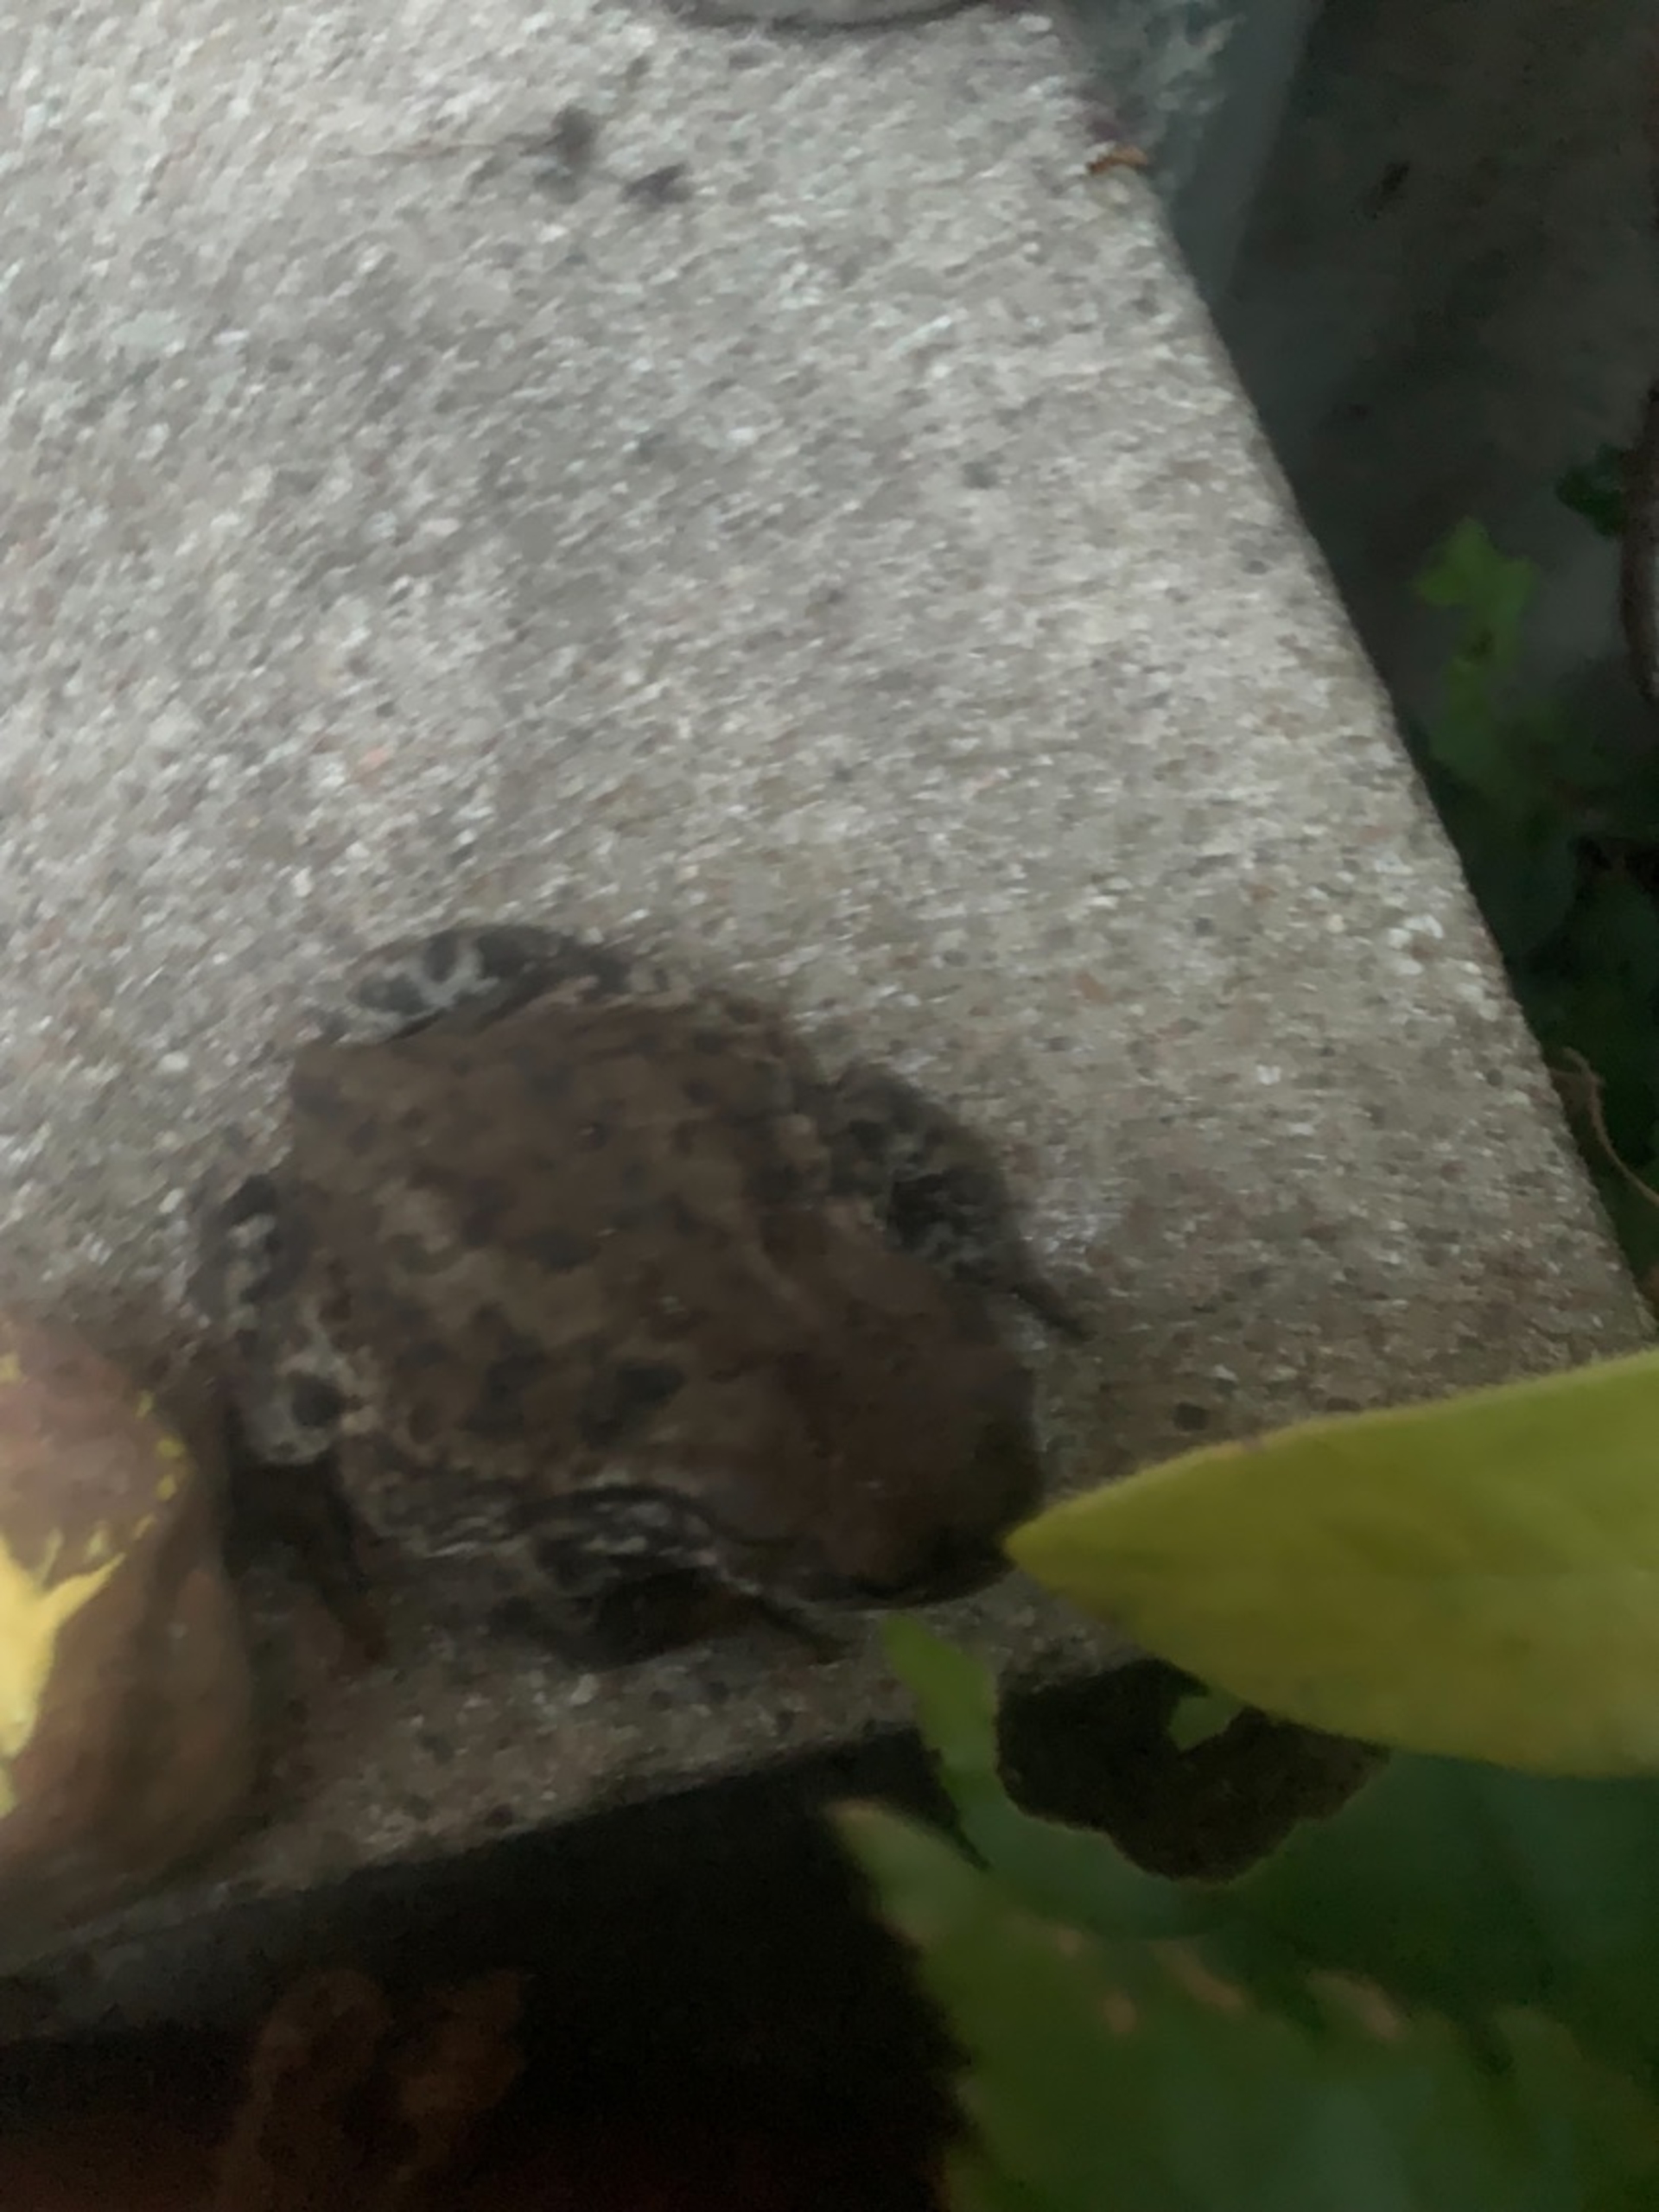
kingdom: Animalia
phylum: Chordata
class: Amphibia
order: Anura
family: Bufonidae
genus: Bufo
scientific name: Bufo bufo
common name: Skrubtudse
